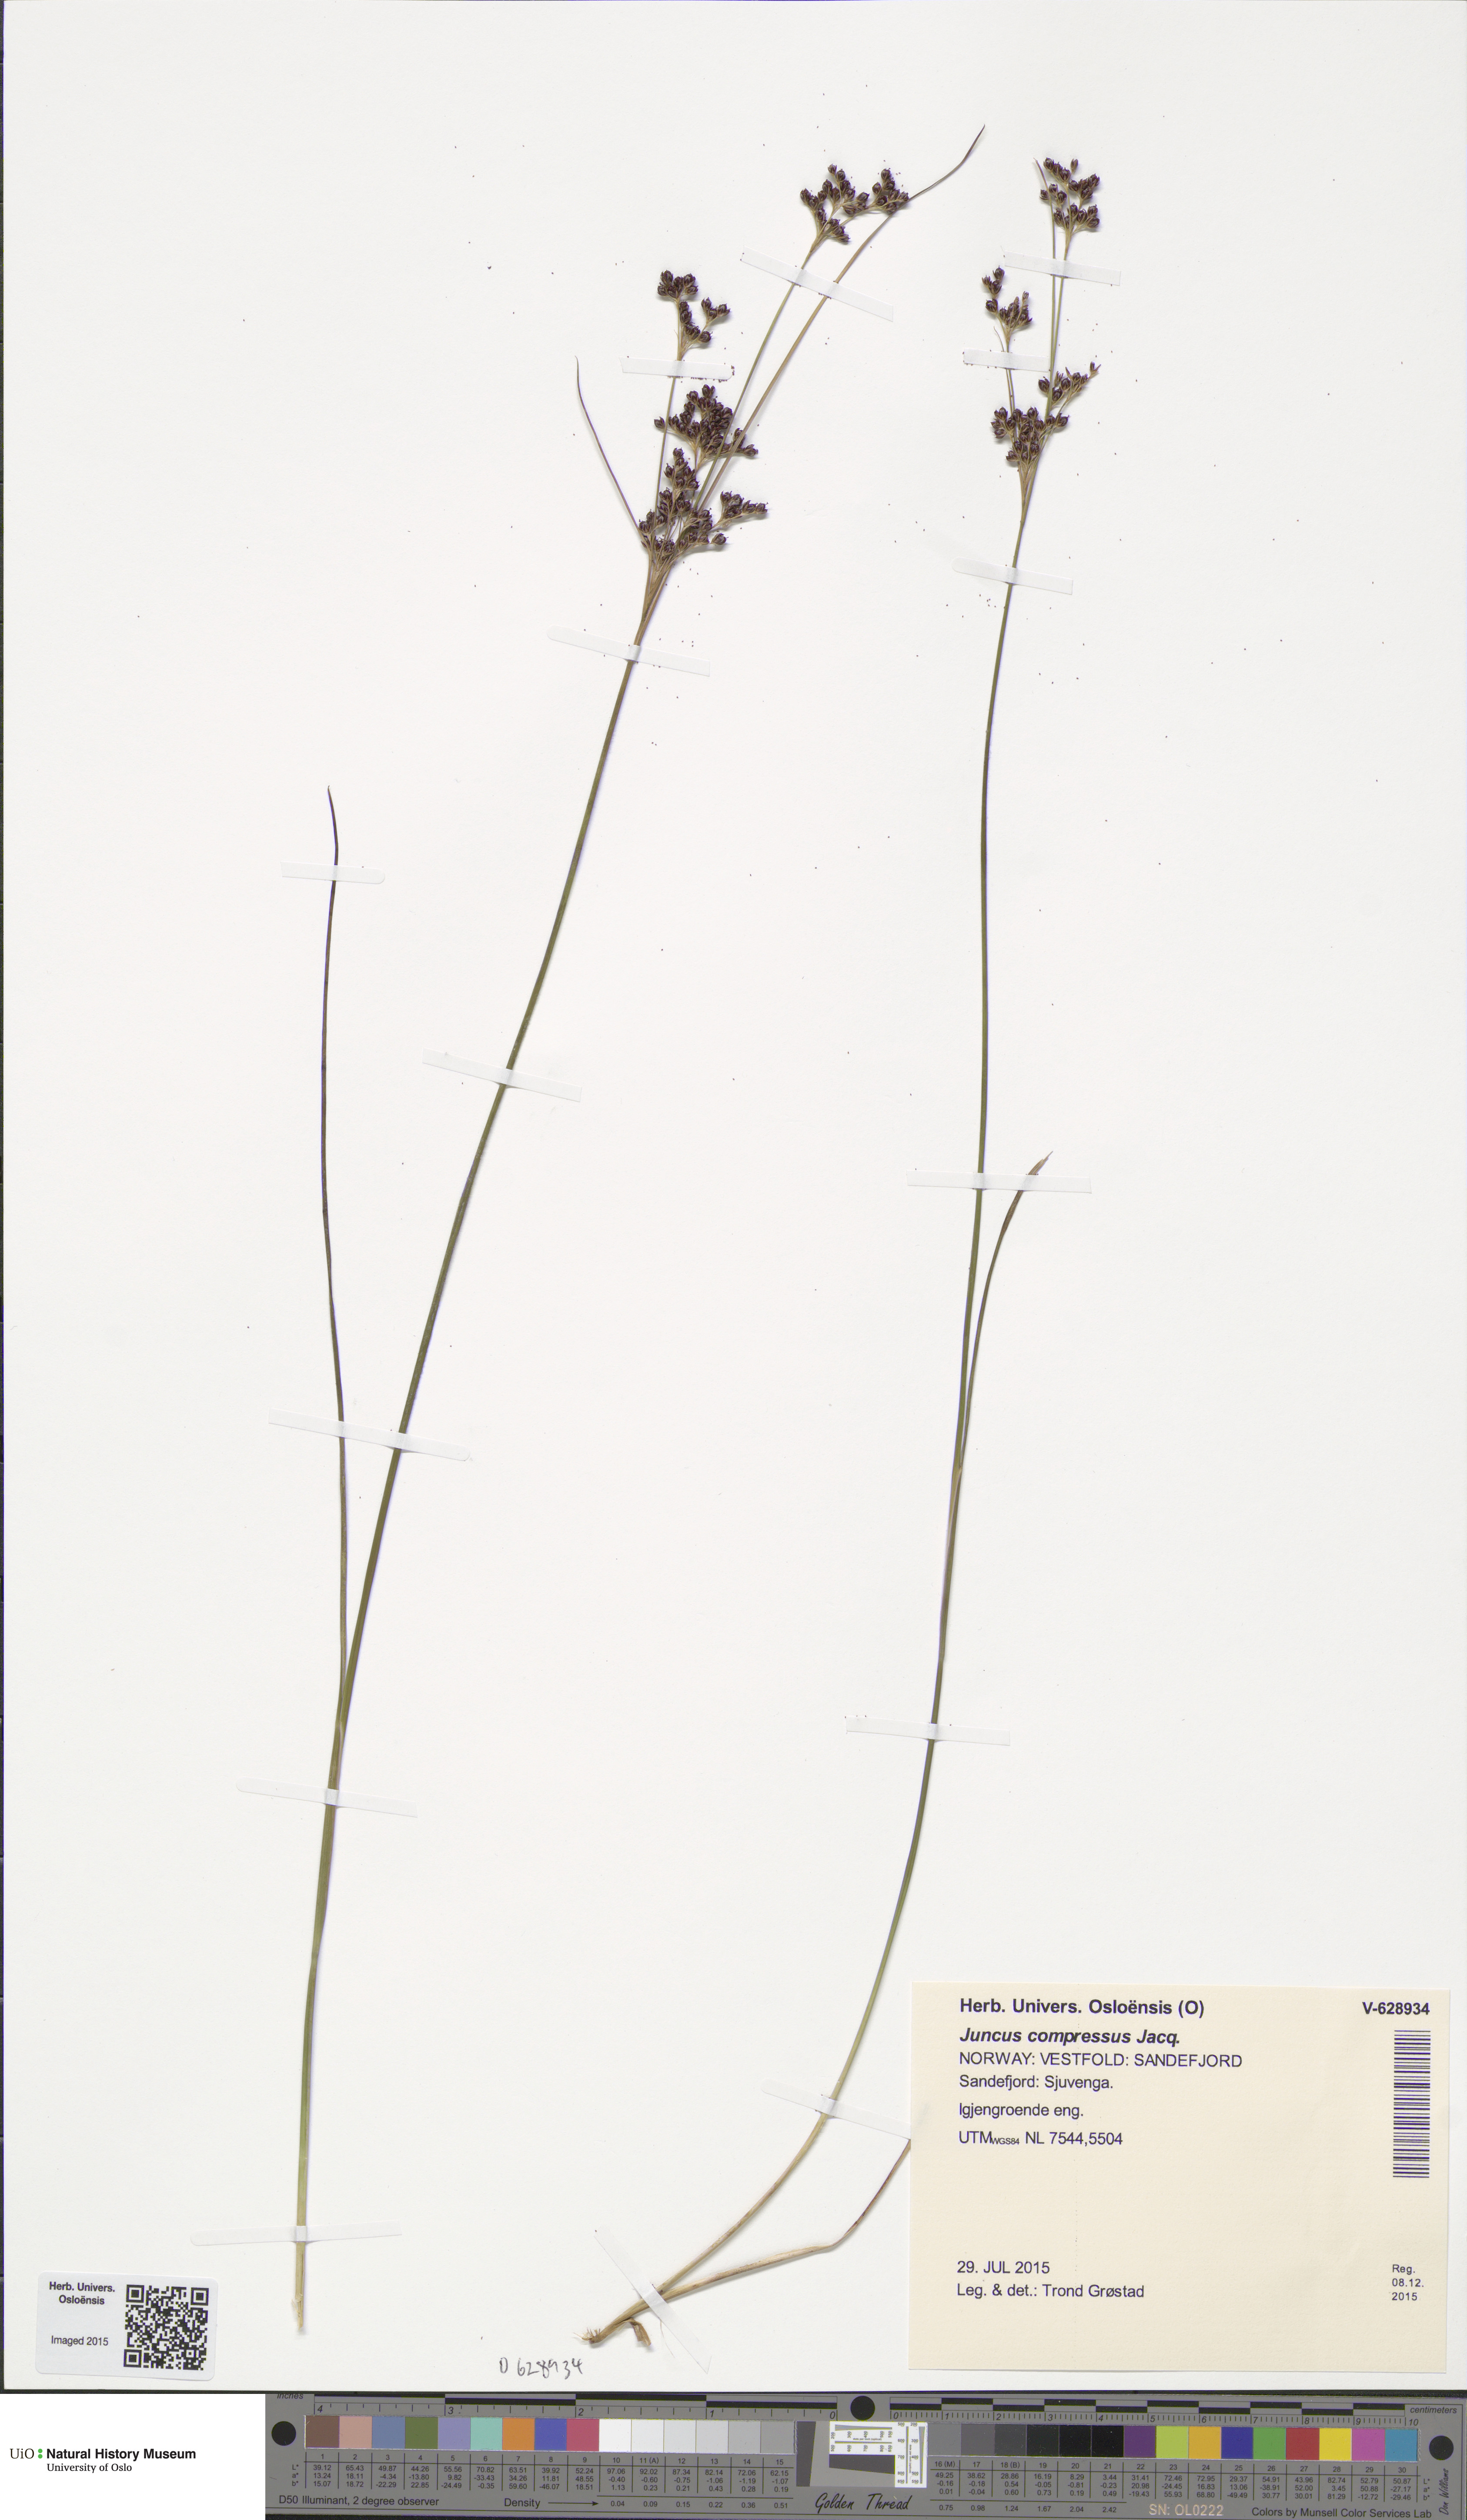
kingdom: Plantae
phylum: Tracheophyta
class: Liliopsida
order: Poales
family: Juncaceae
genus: Juncus
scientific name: Juncus compressus
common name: Round-fruited rush
